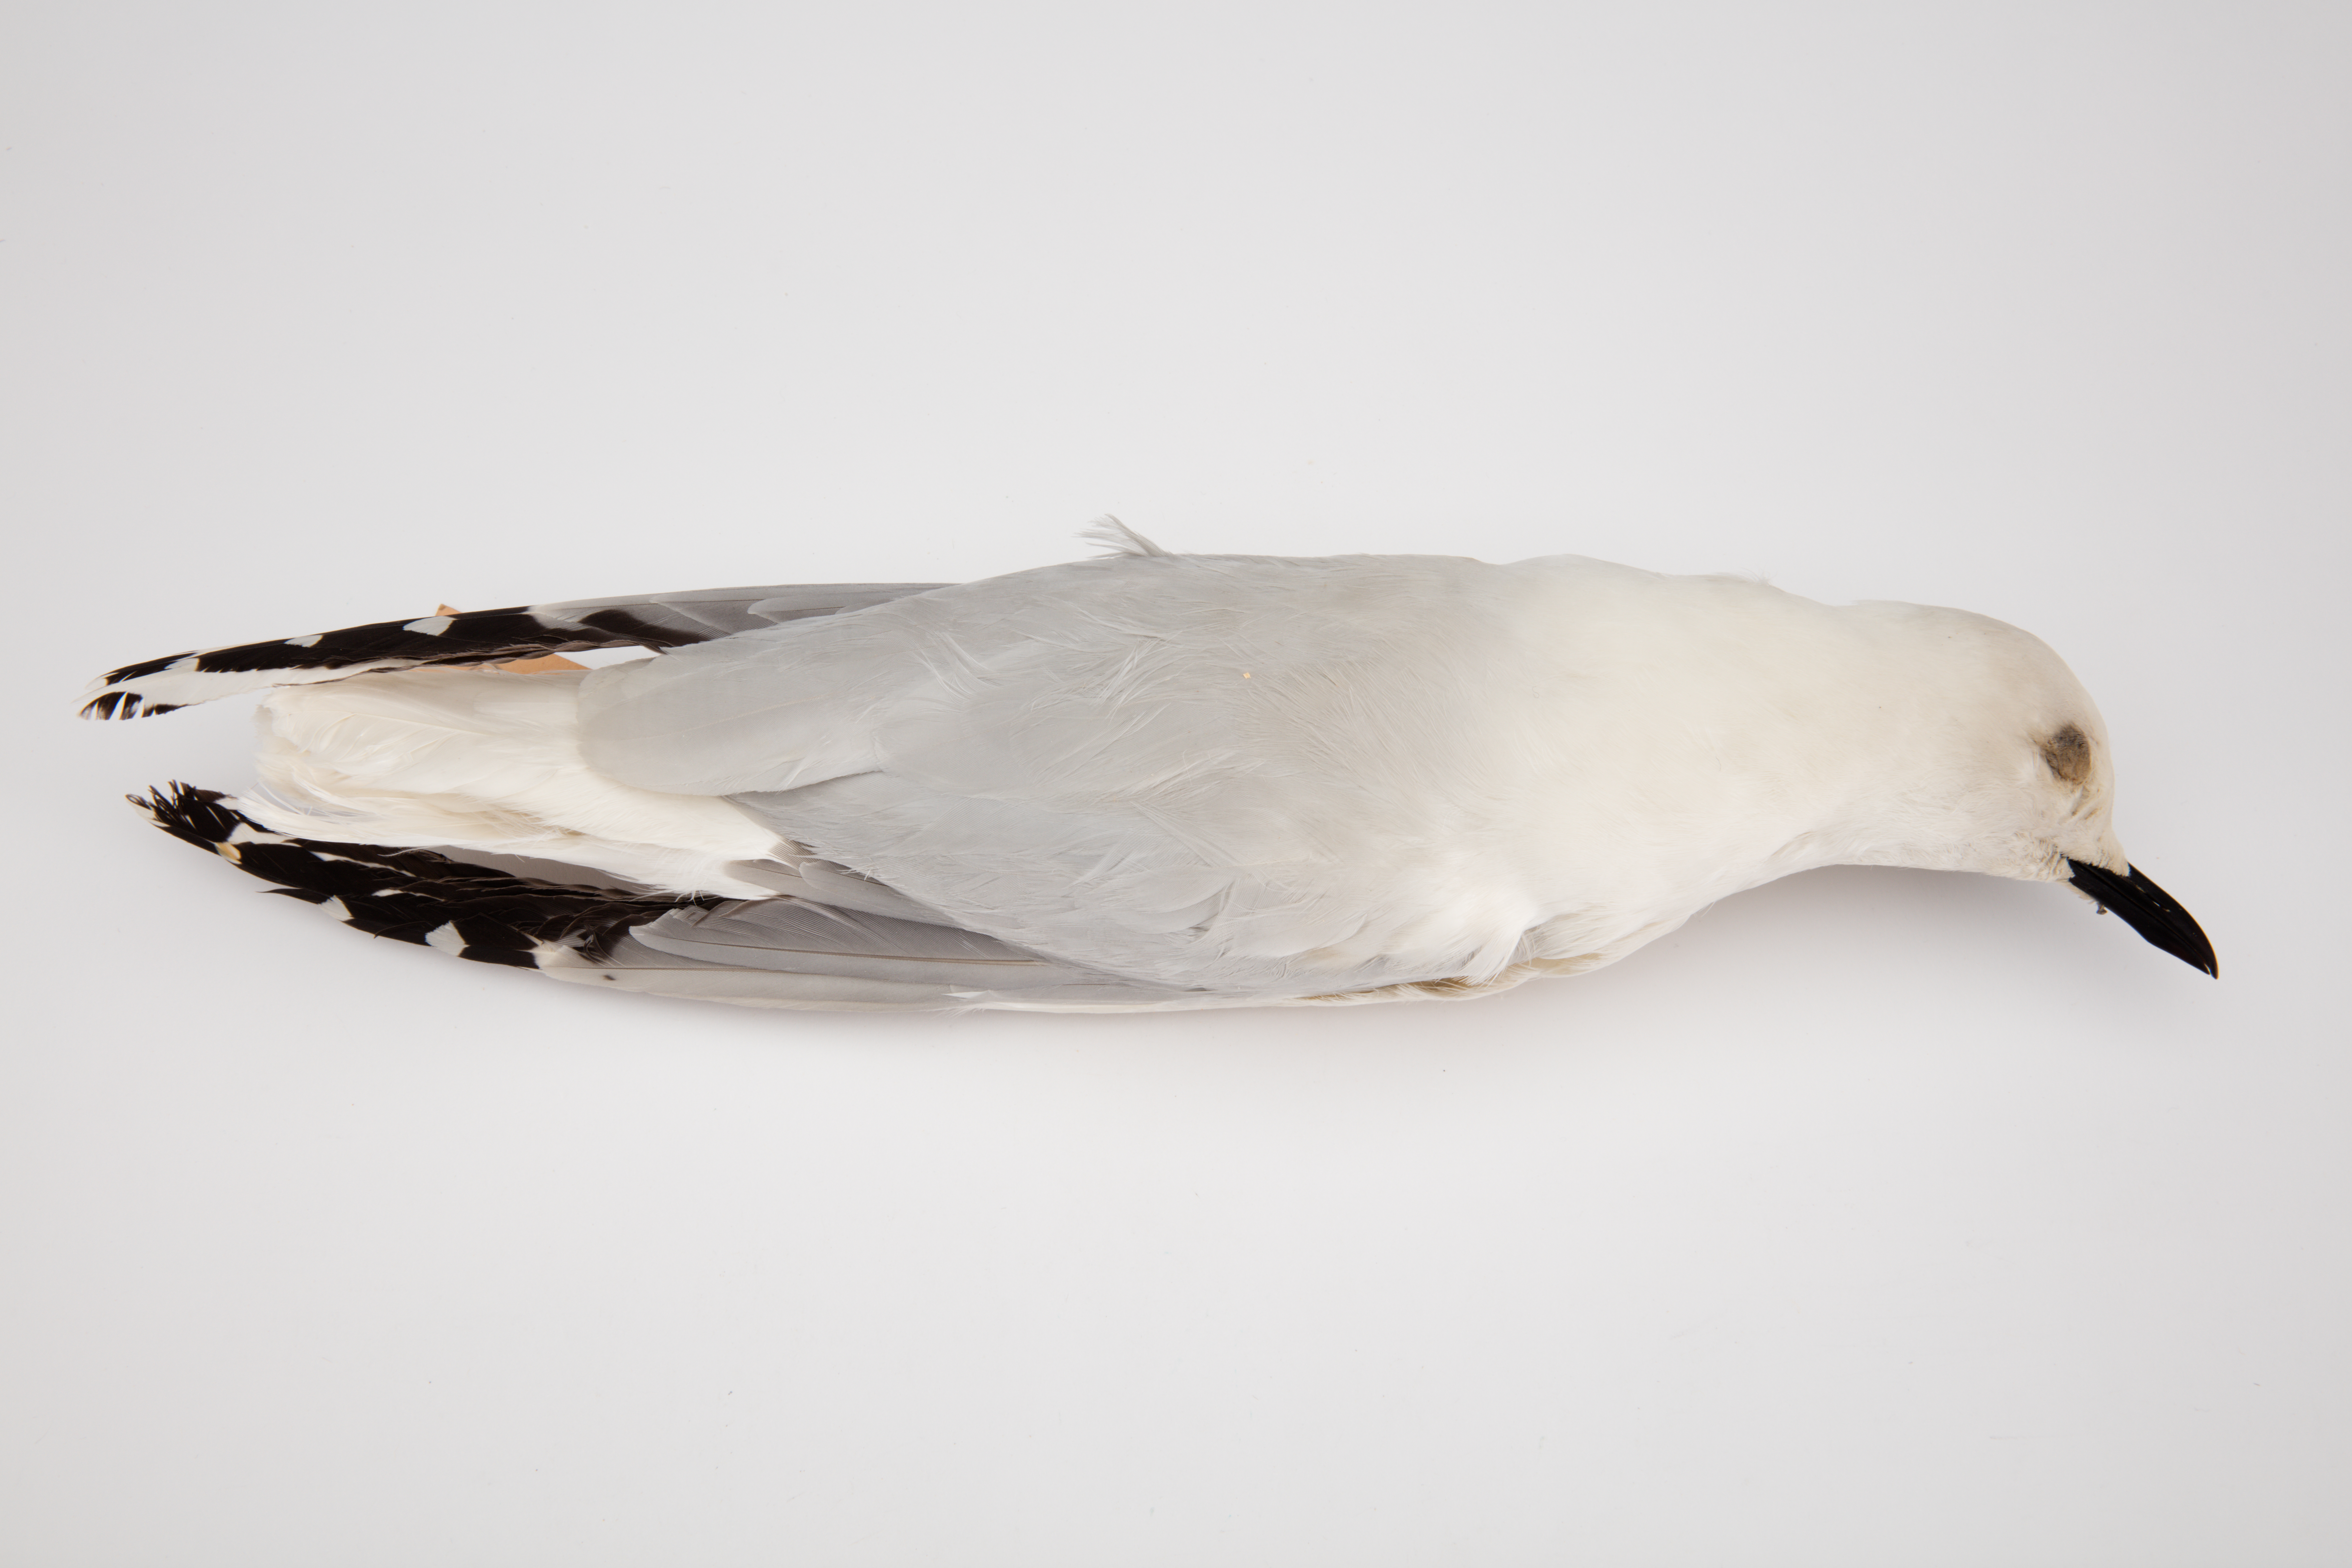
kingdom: Animalia
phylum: Chordata
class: Aves
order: Charadriiformes
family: Laridae
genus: Chroicocephalus
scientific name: Chroicocephalus bulleri
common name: Black-billed gull
